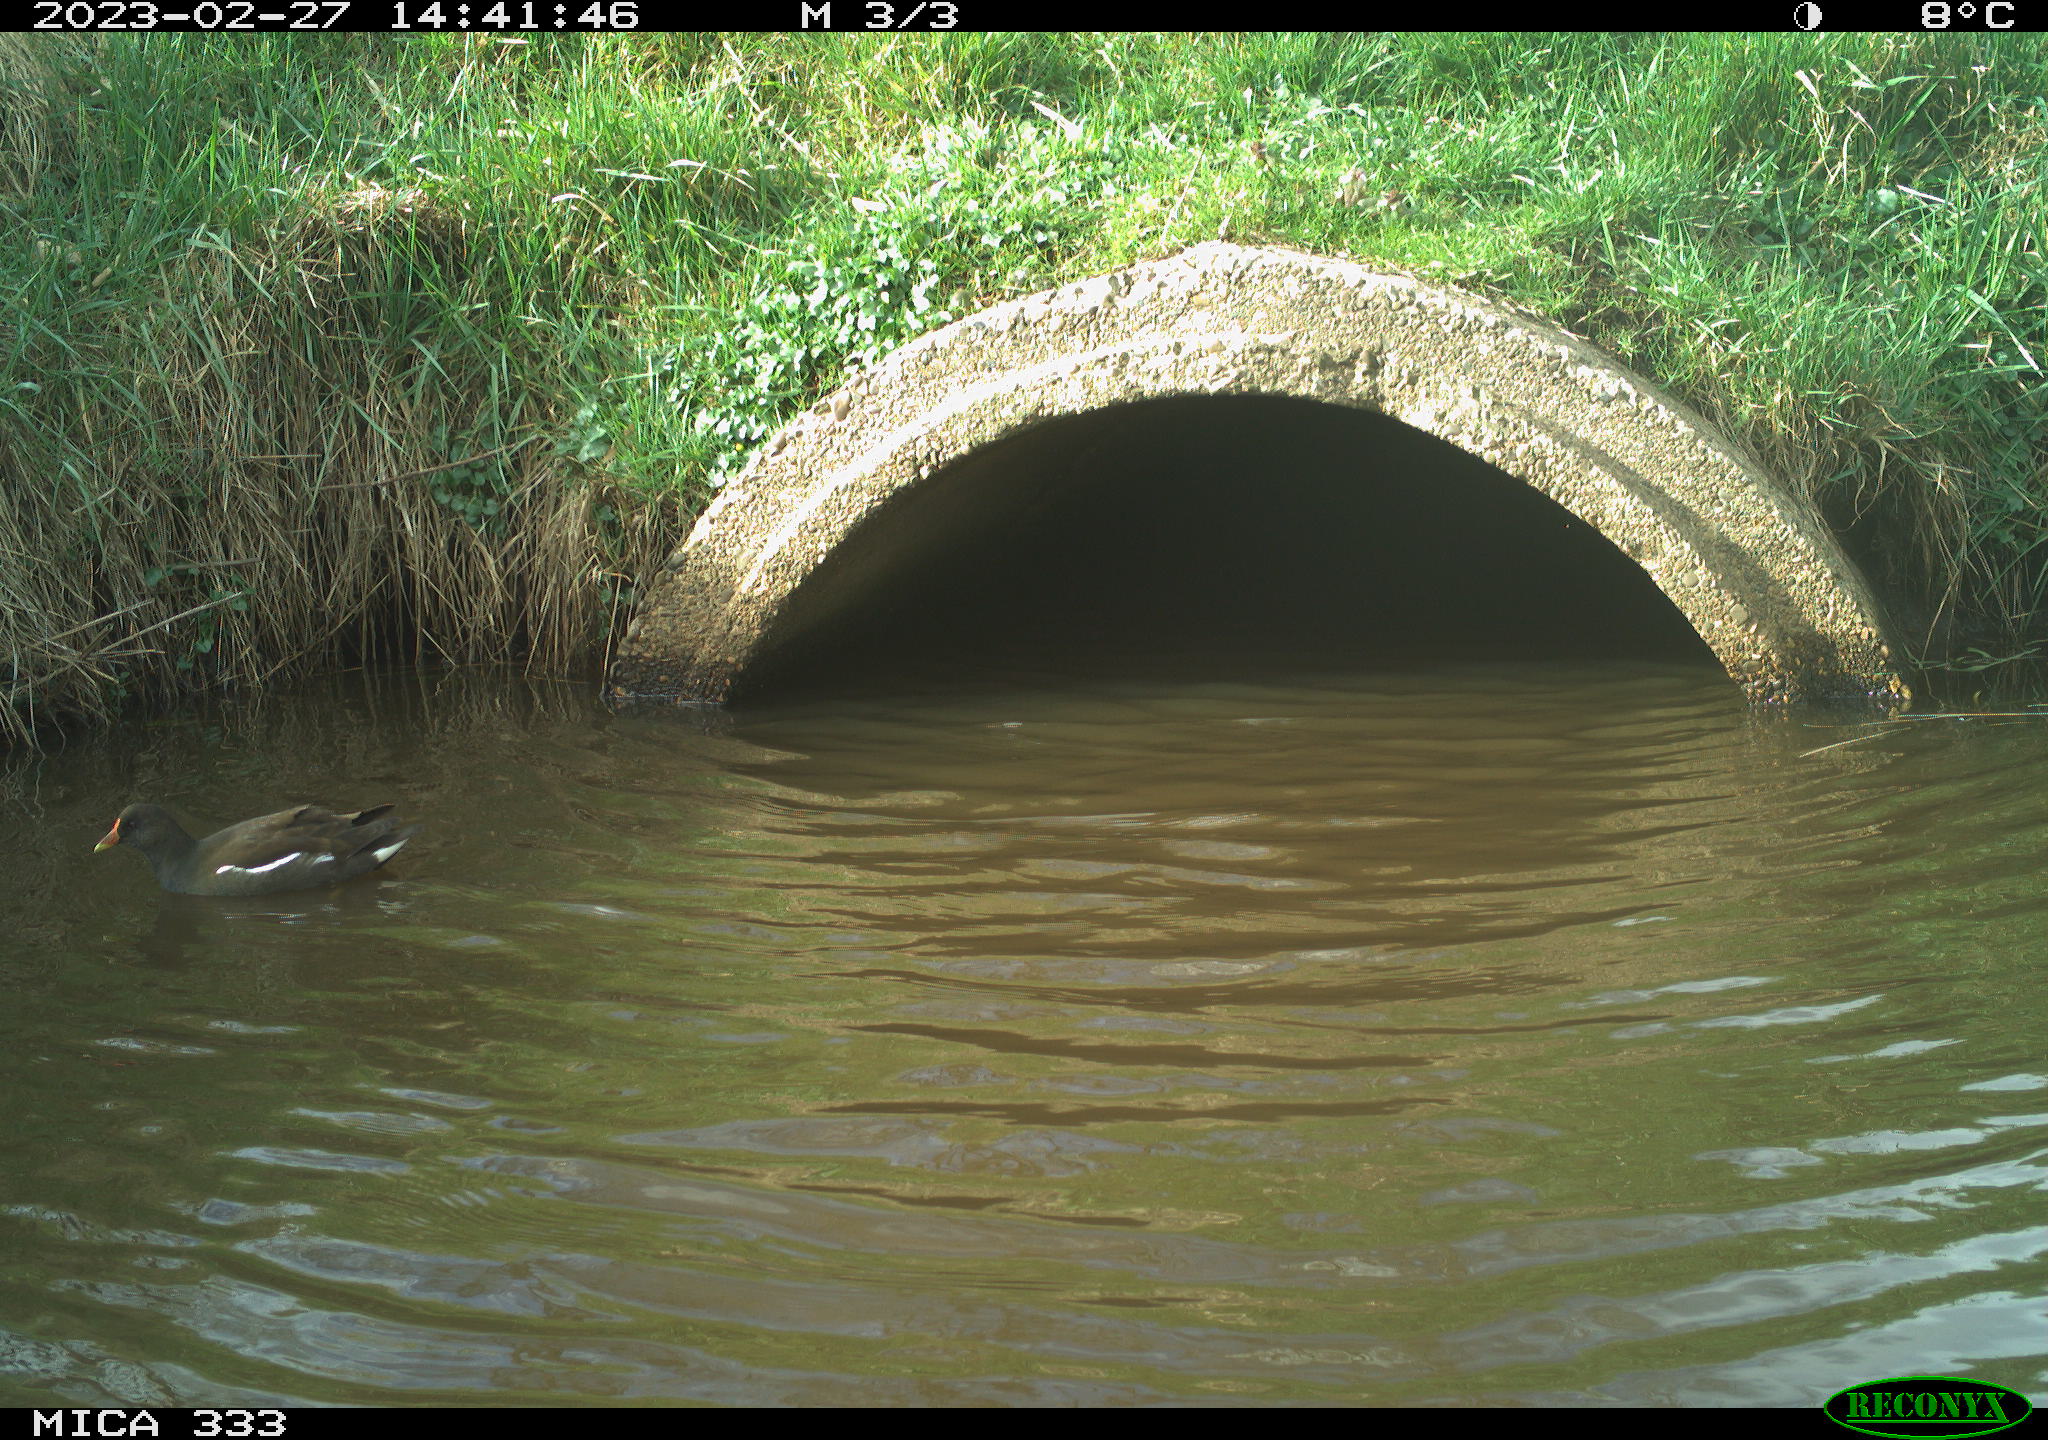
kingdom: Animalia
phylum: Chordata
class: Aves
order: Gruiformes
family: Rallidae
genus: Gallinula
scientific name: Gallinula chloropus
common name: Common moorhen
